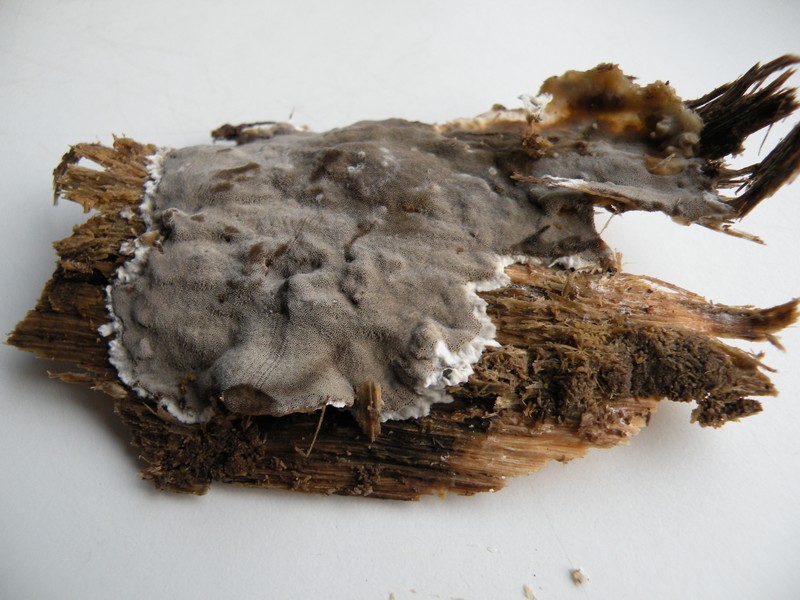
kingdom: Fungi
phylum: Basidiomycota
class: Agaricomycetes
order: Polyporales
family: Phanerochaetaceae
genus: Bjerkandera
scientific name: Bjerkandera adusta
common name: sveden sodporesvamp
